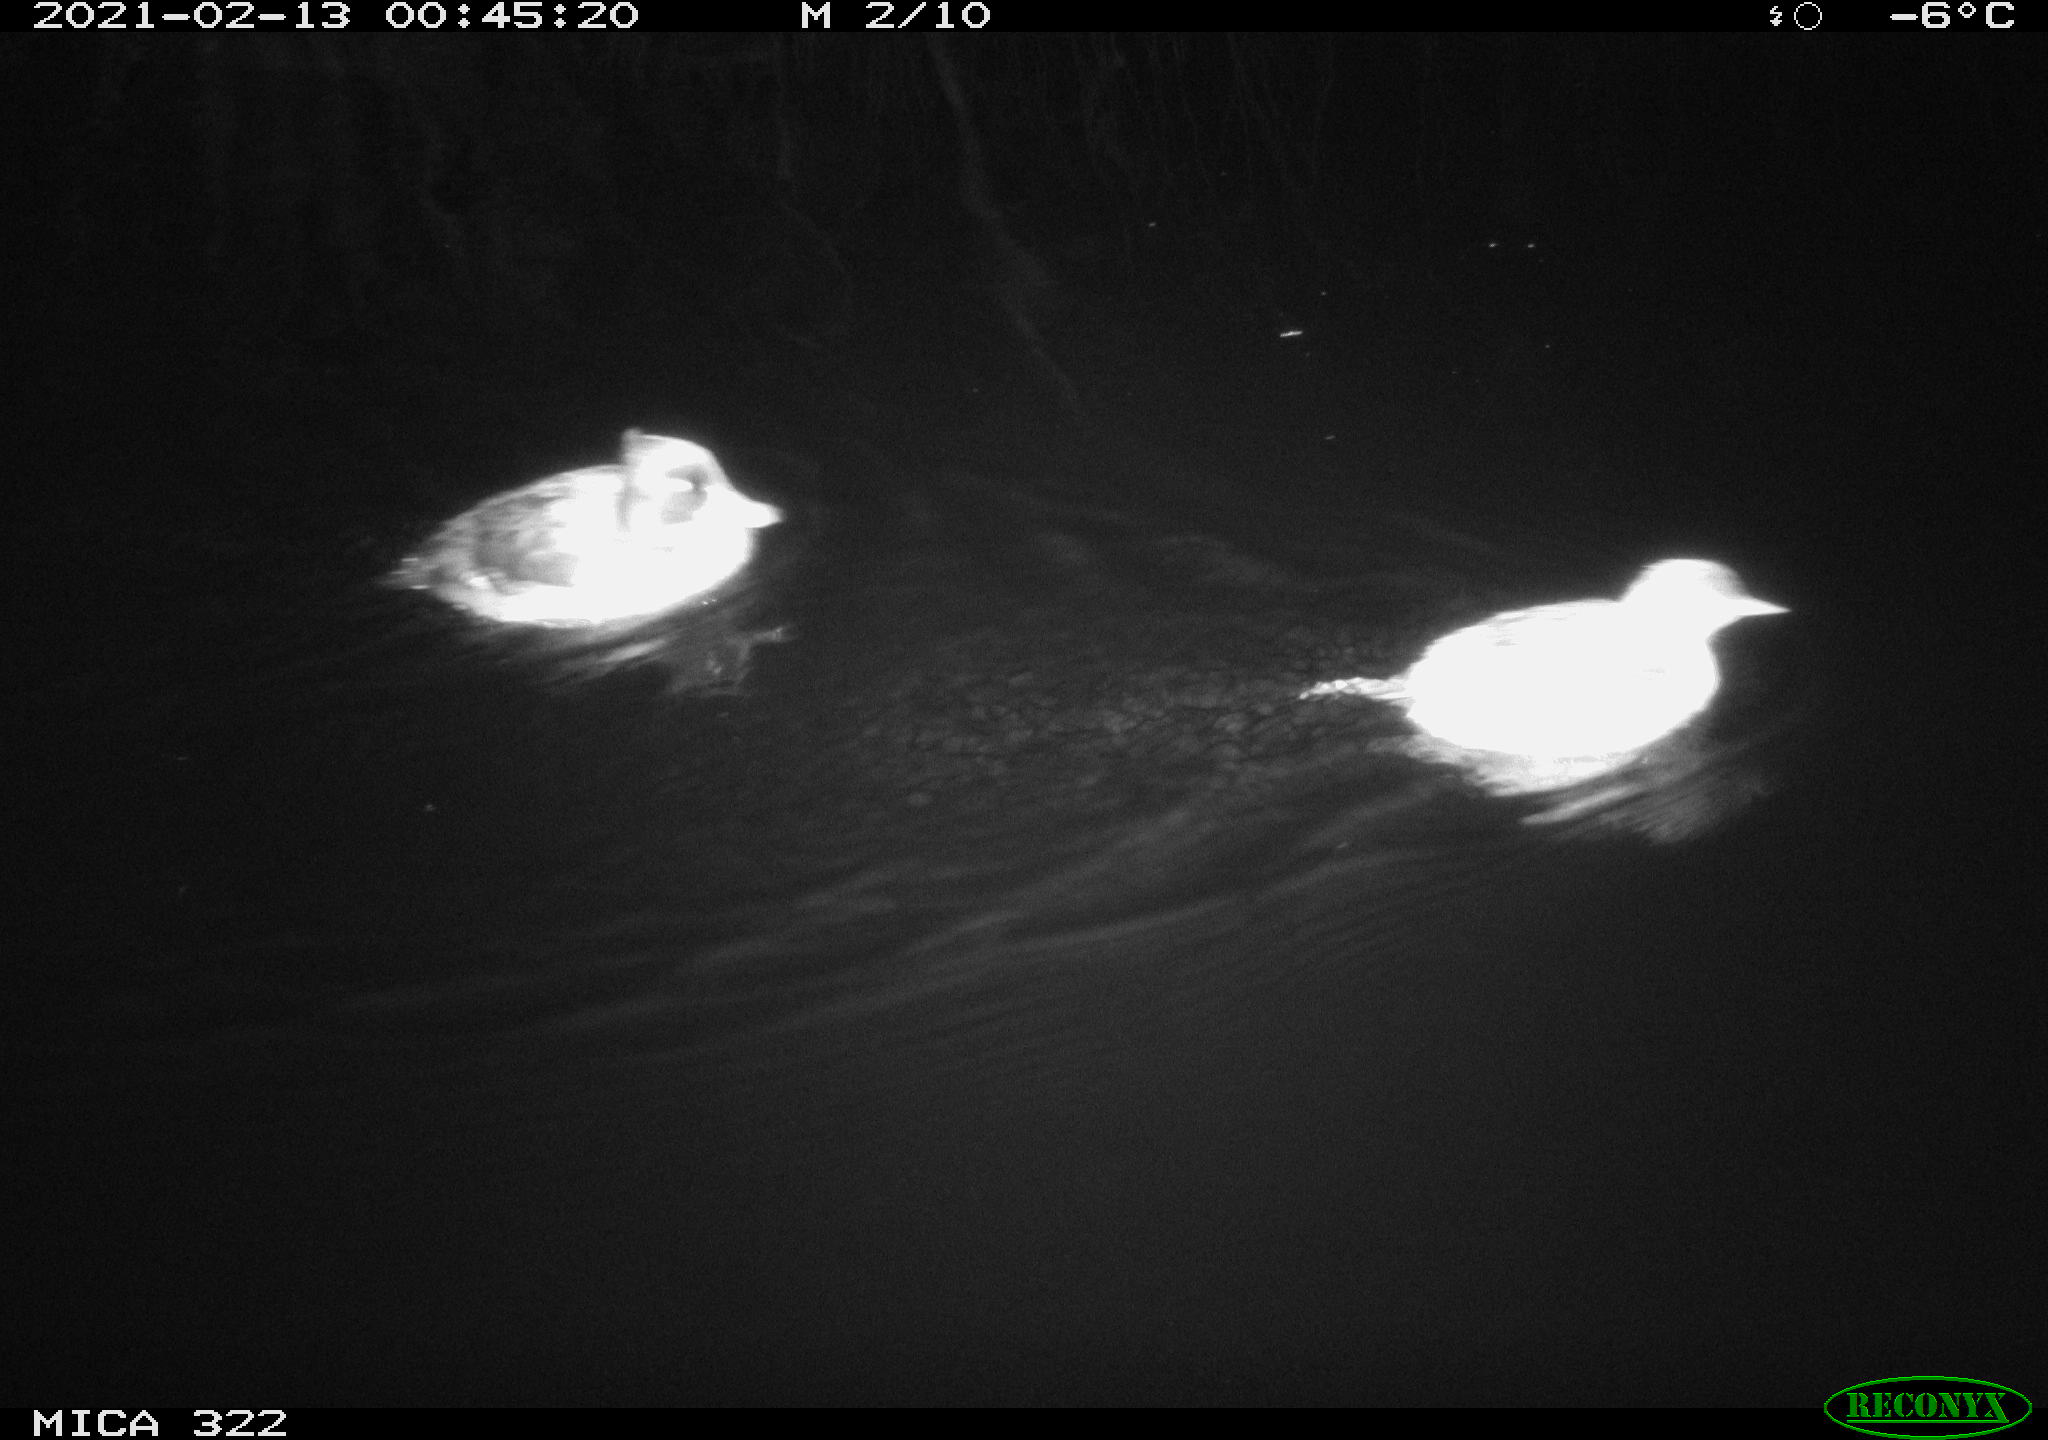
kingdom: Animalia
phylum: Chordata
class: Aves
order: Gruiformes
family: Rallidae
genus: Gallinula
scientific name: Gallinula chloropus
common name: Common moorhen
